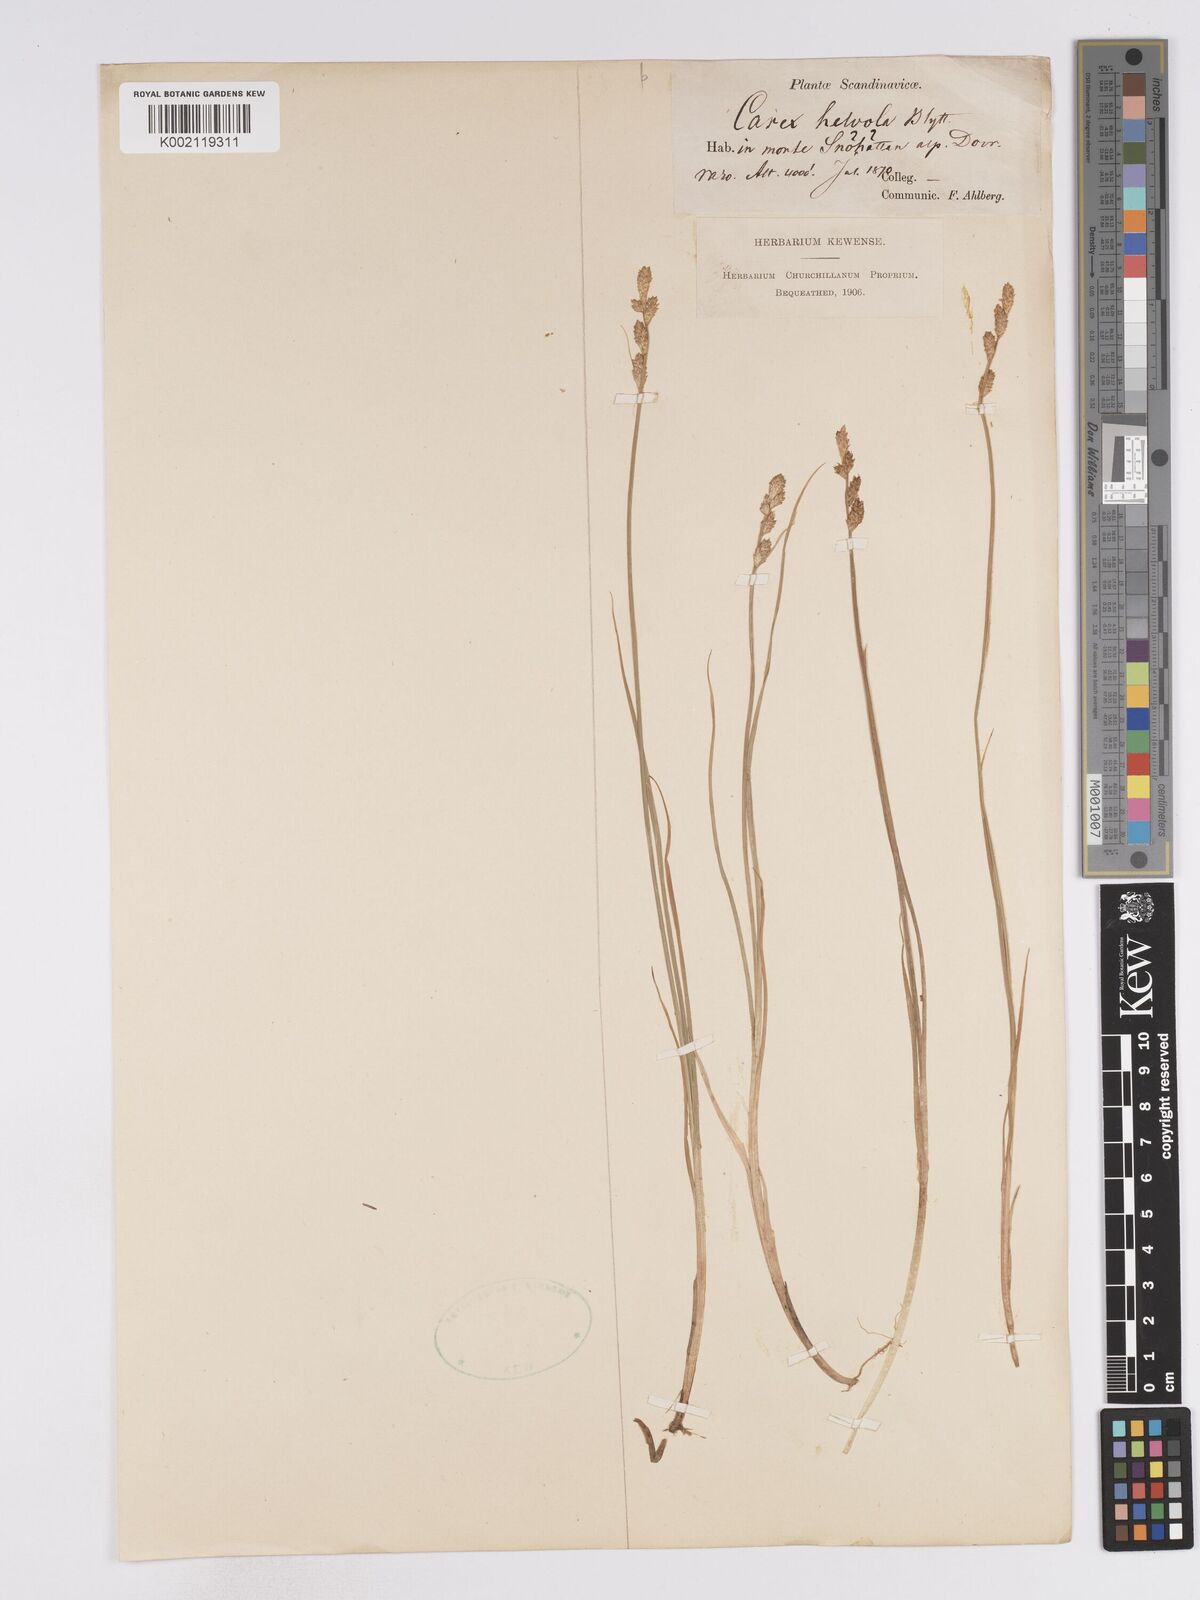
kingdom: Plantae
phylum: Tracheophyta
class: Liliopsida
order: Poales
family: Cyperaceae
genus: Carex
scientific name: Carex
